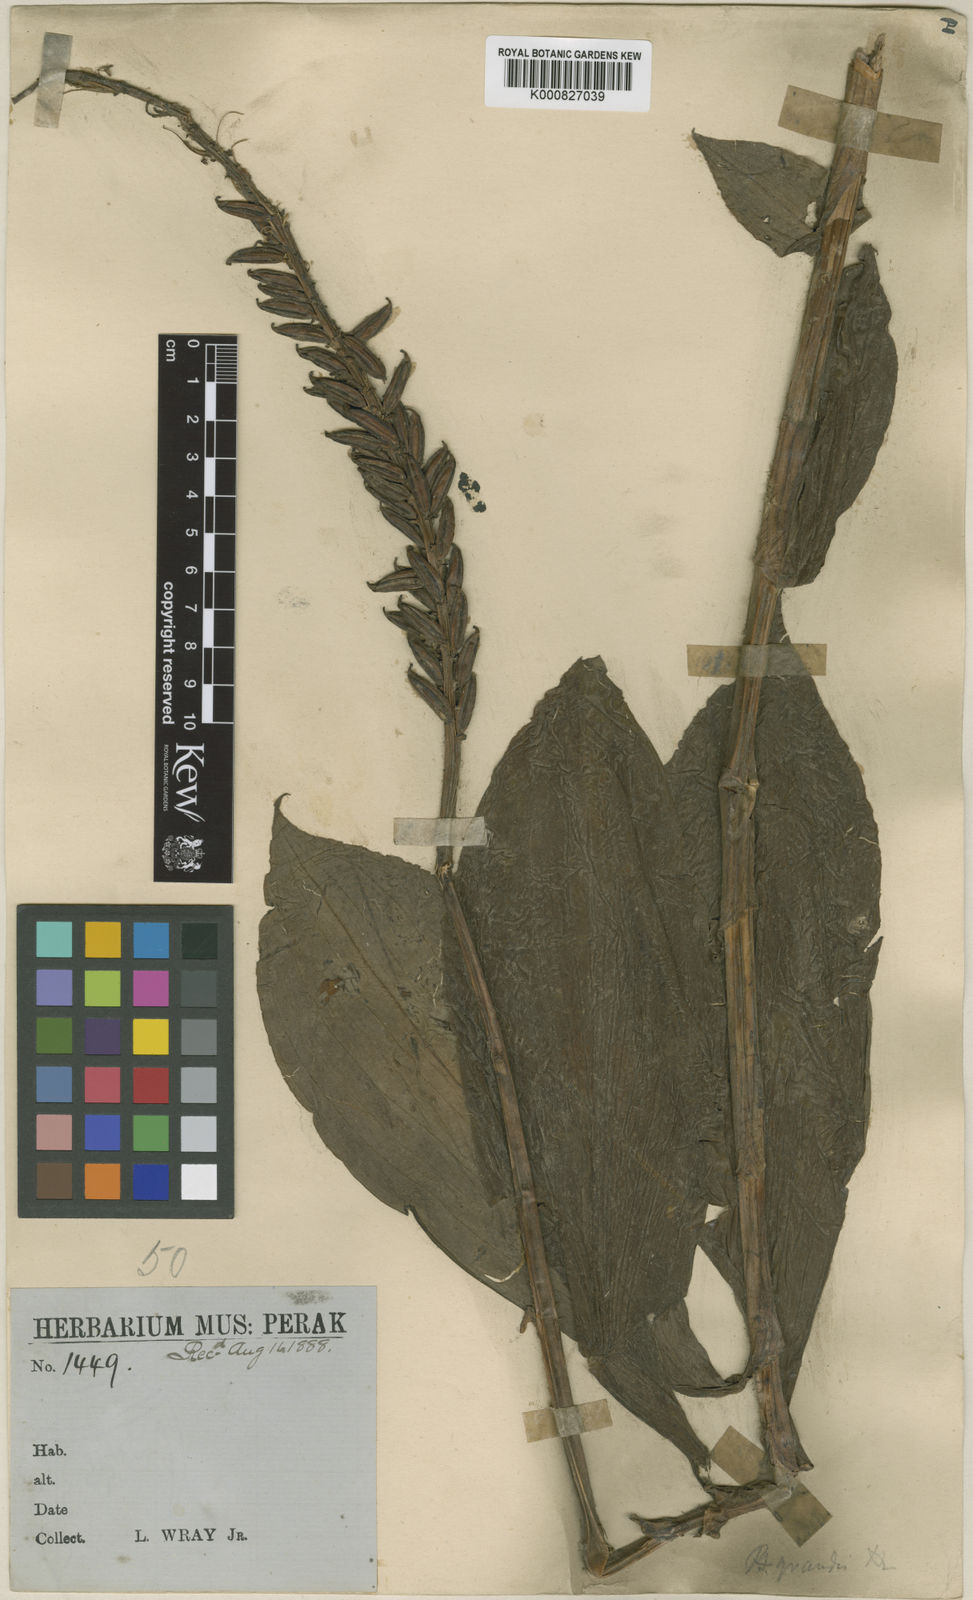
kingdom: Plantae
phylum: Tracheophyta
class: Liliopsida
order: Asparagales
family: Orchidaceae
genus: Peristylus
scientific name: Peristylus grandis
